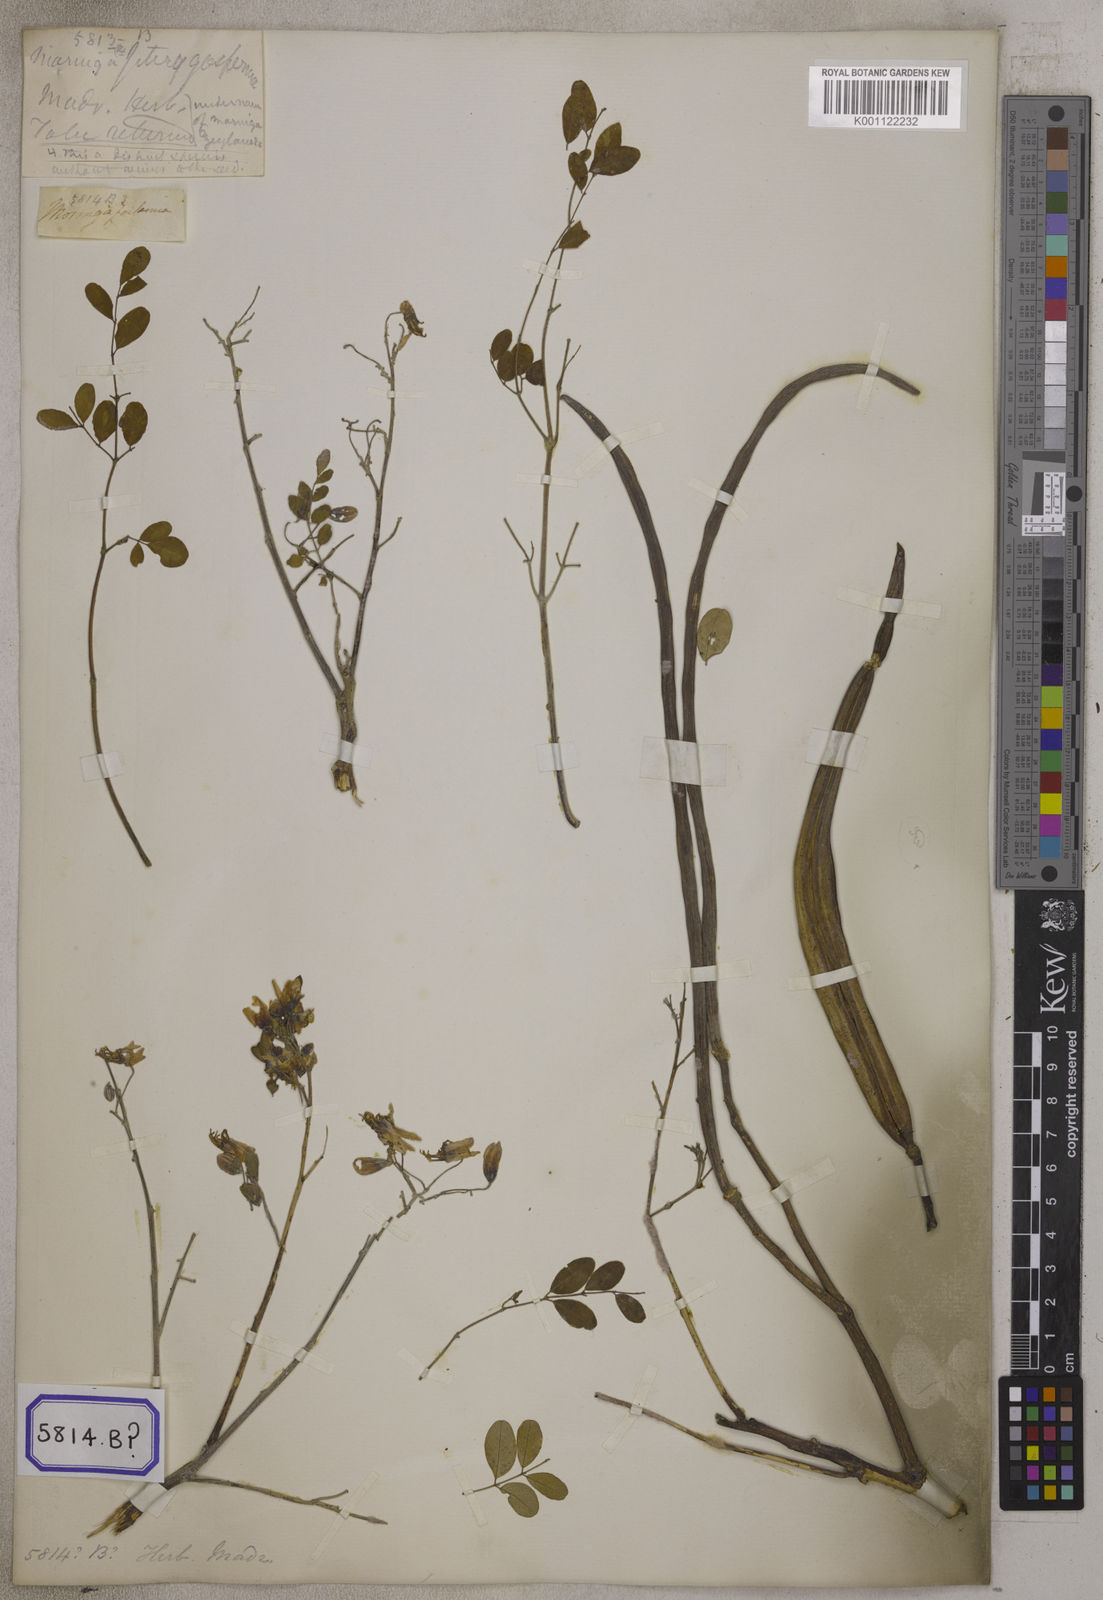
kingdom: Plantae
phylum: Tracheophyta
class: Magnoliopsida
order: Brassicales
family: Moringaceae
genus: Moringa
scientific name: Moringa oleifera
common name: Horseradish-tree
